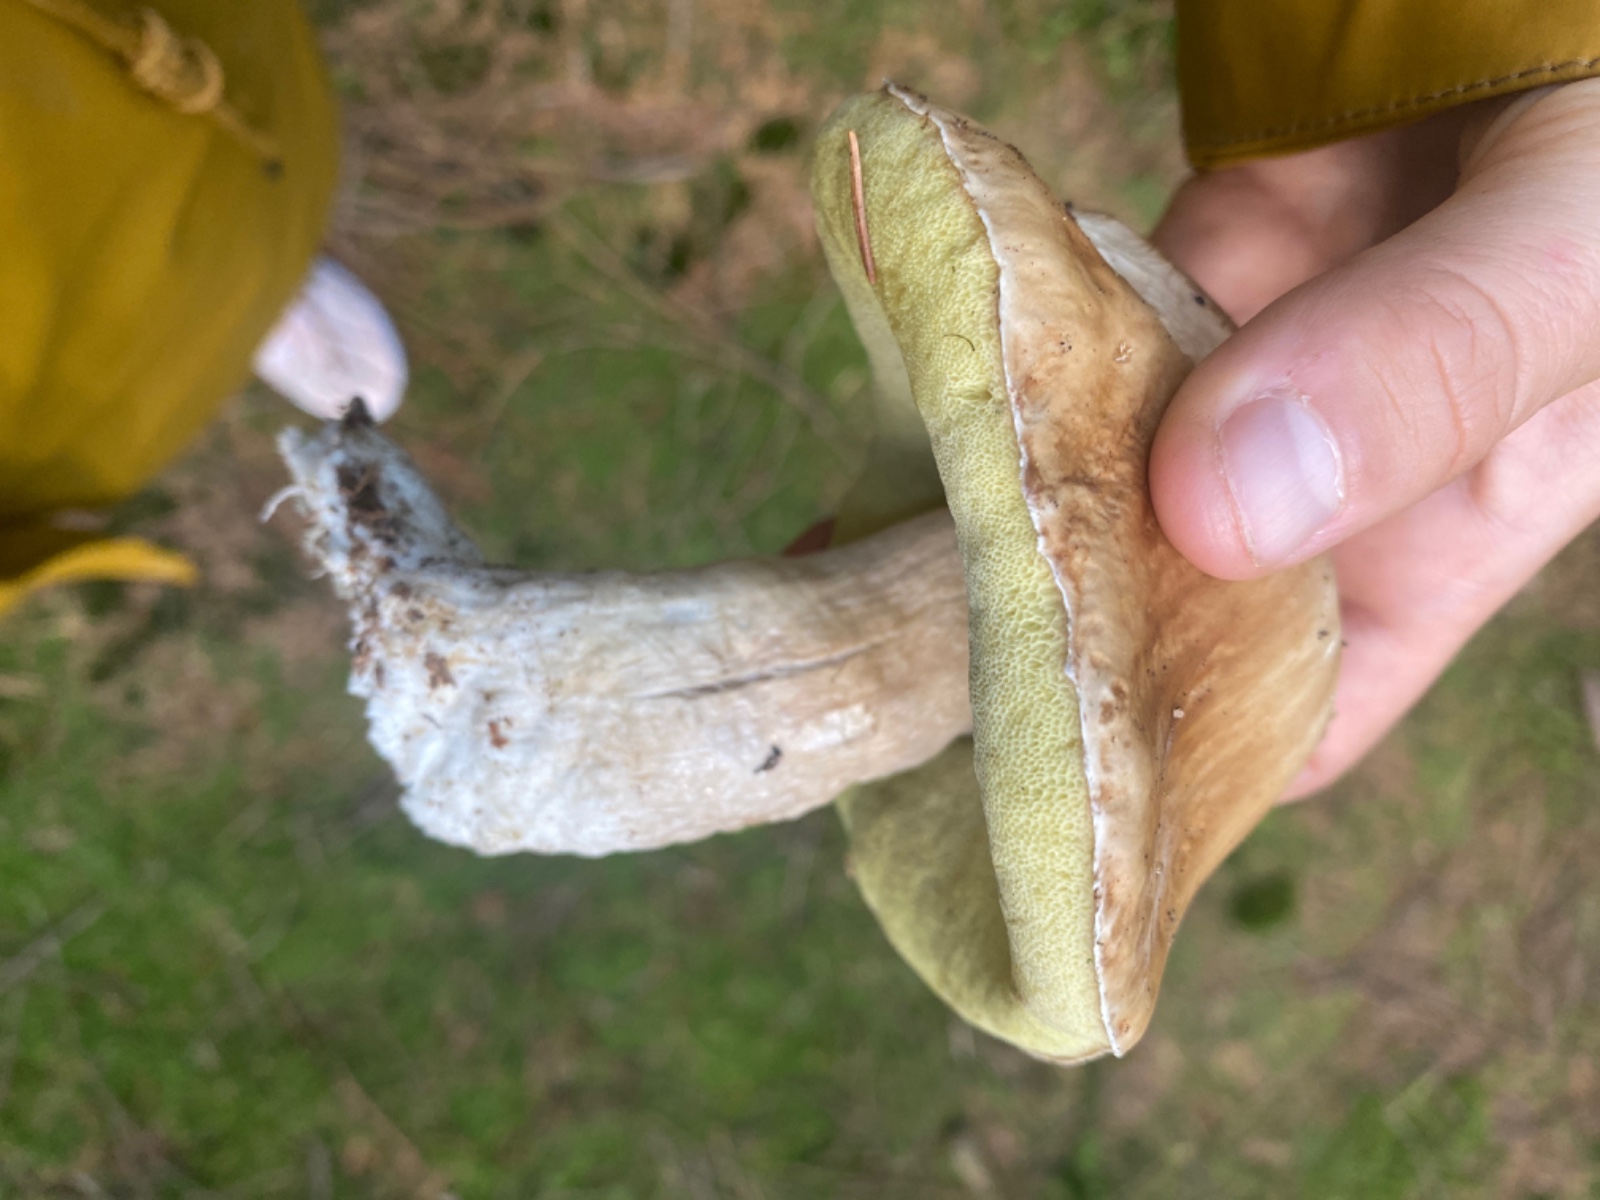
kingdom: Fungi
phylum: Basidiomycota
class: Agaricomycetes
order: Boletales
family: Boletaceae
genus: Boletus
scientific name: Boletus edulis
